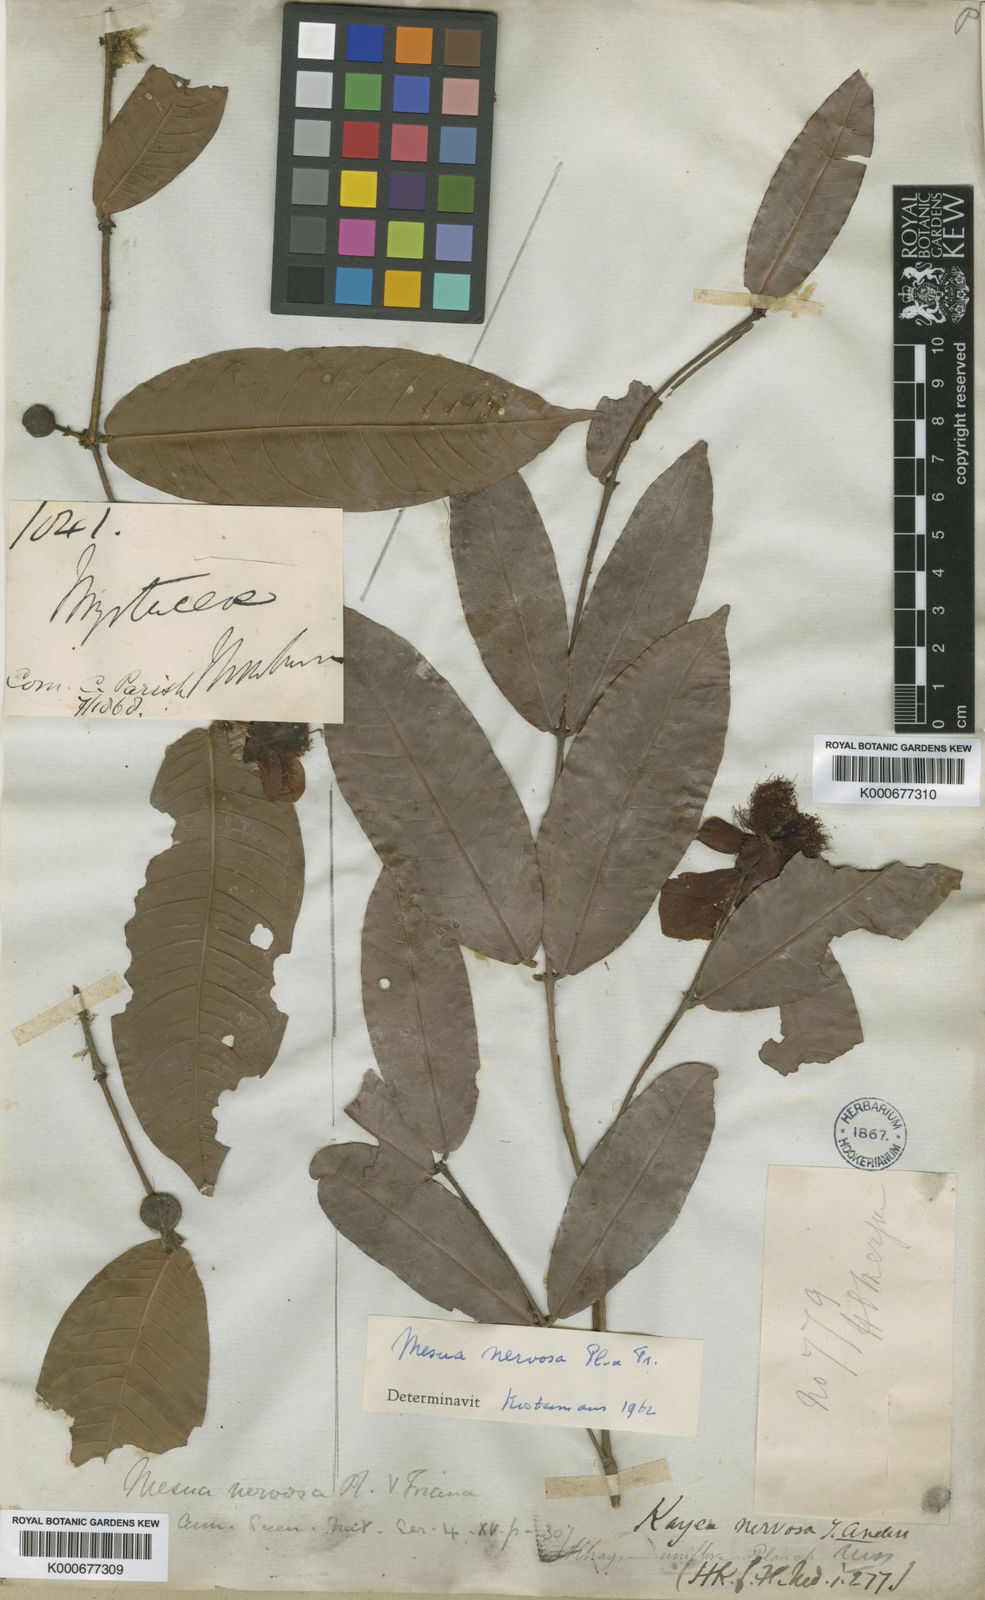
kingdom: Plantae
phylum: Tracheophyta
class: Magnoliopsida
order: Malpighiales
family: Calophyllaceae
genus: Kayea
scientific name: Kayea nervosa
